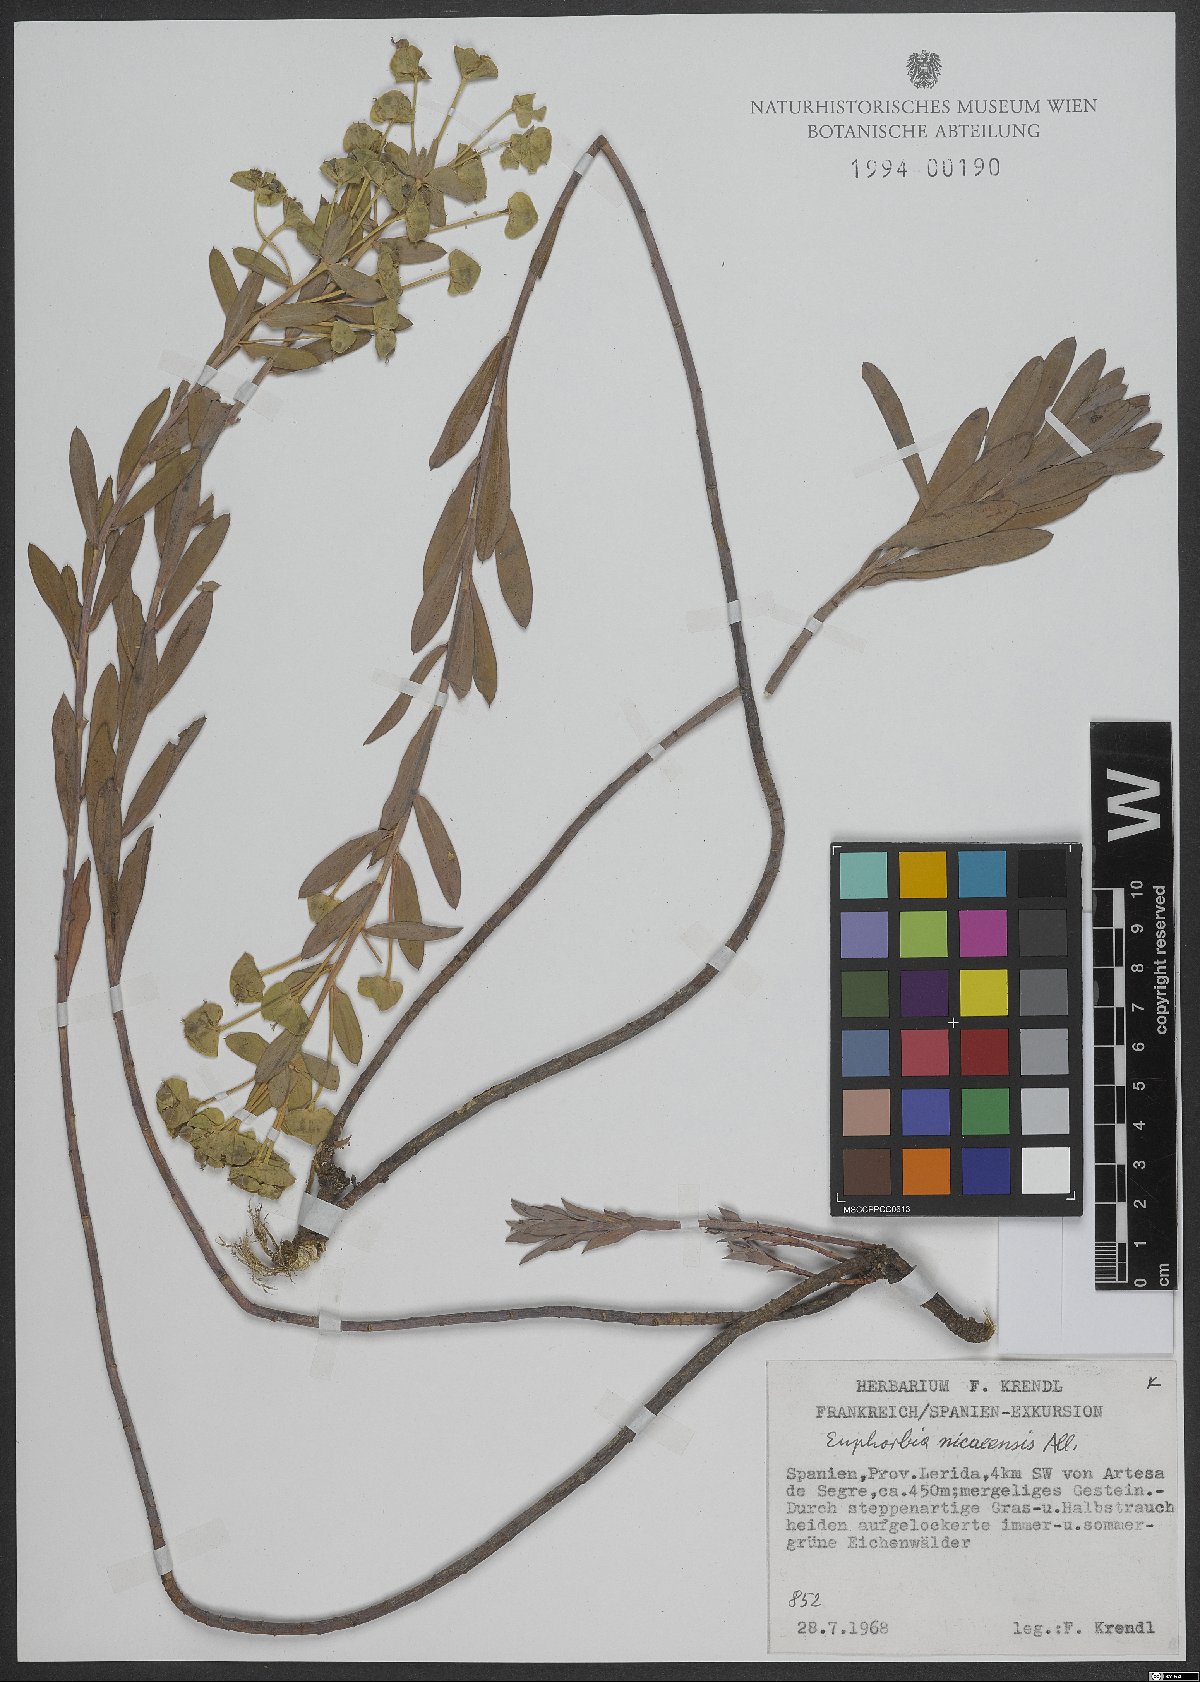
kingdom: Plantae
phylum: Tracheophyta
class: Magnoliopsida
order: Malpighiales
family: Euphorbiaceae
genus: Euphorbia
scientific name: Euphorbia nicaeensis
